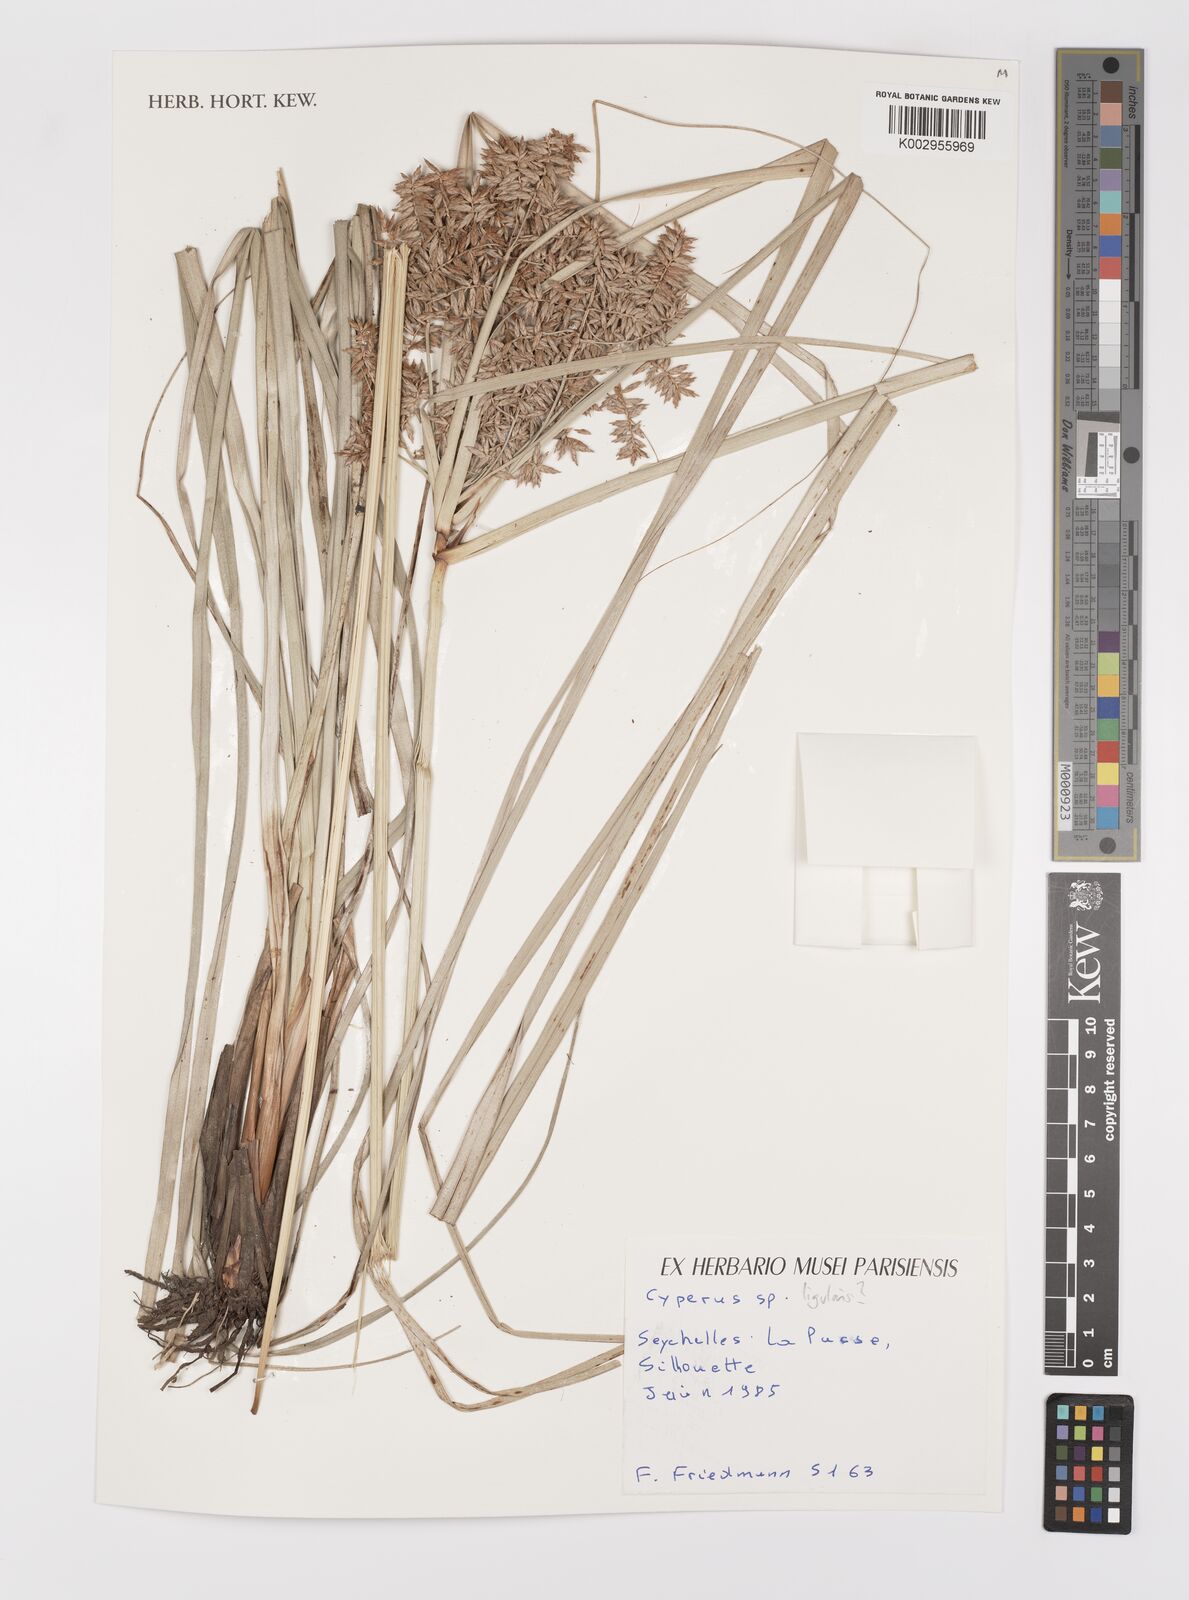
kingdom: Plantae
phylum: Tracheophyta
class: Liliopsida
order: Poales
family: Cyperaceae
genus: Cyperus
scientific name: Cyperus ligularis
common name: Swamp flat sedge
